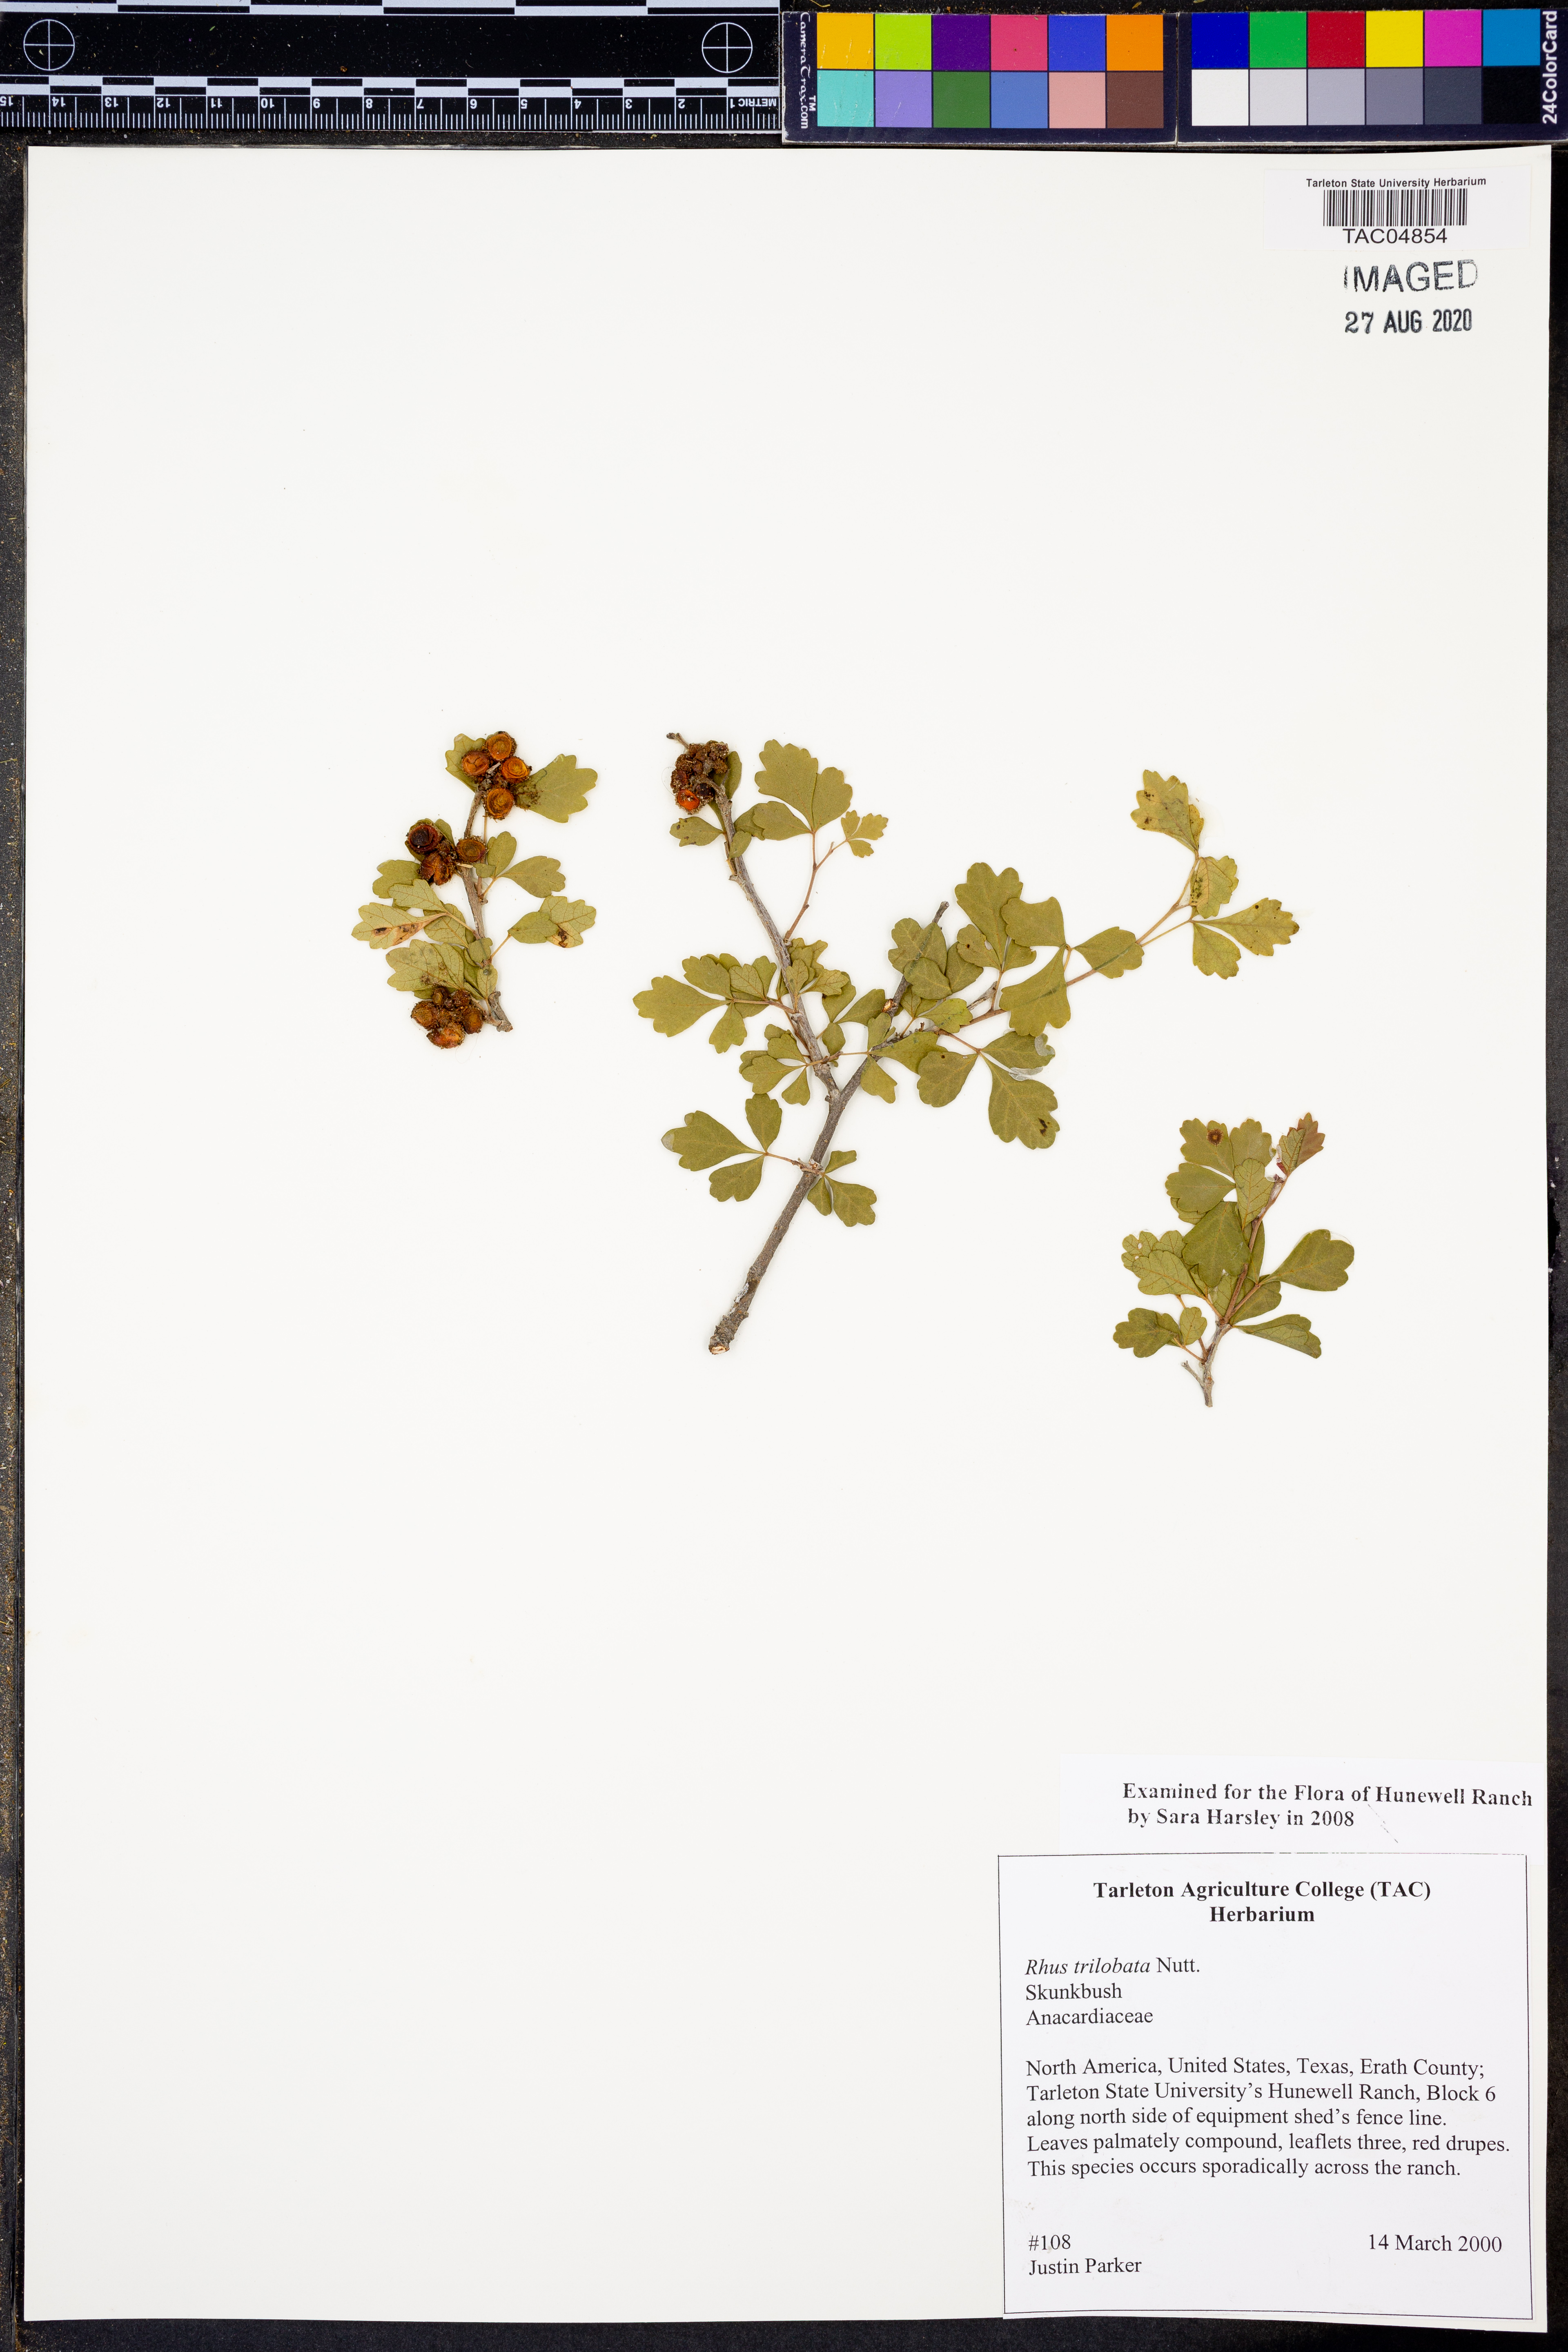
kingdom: Plantae
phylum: Tracheophyta
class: Magnoliopsida
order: Sapindales
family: Anacardiaceae
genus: Rhus
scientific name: Rhus trilobata
